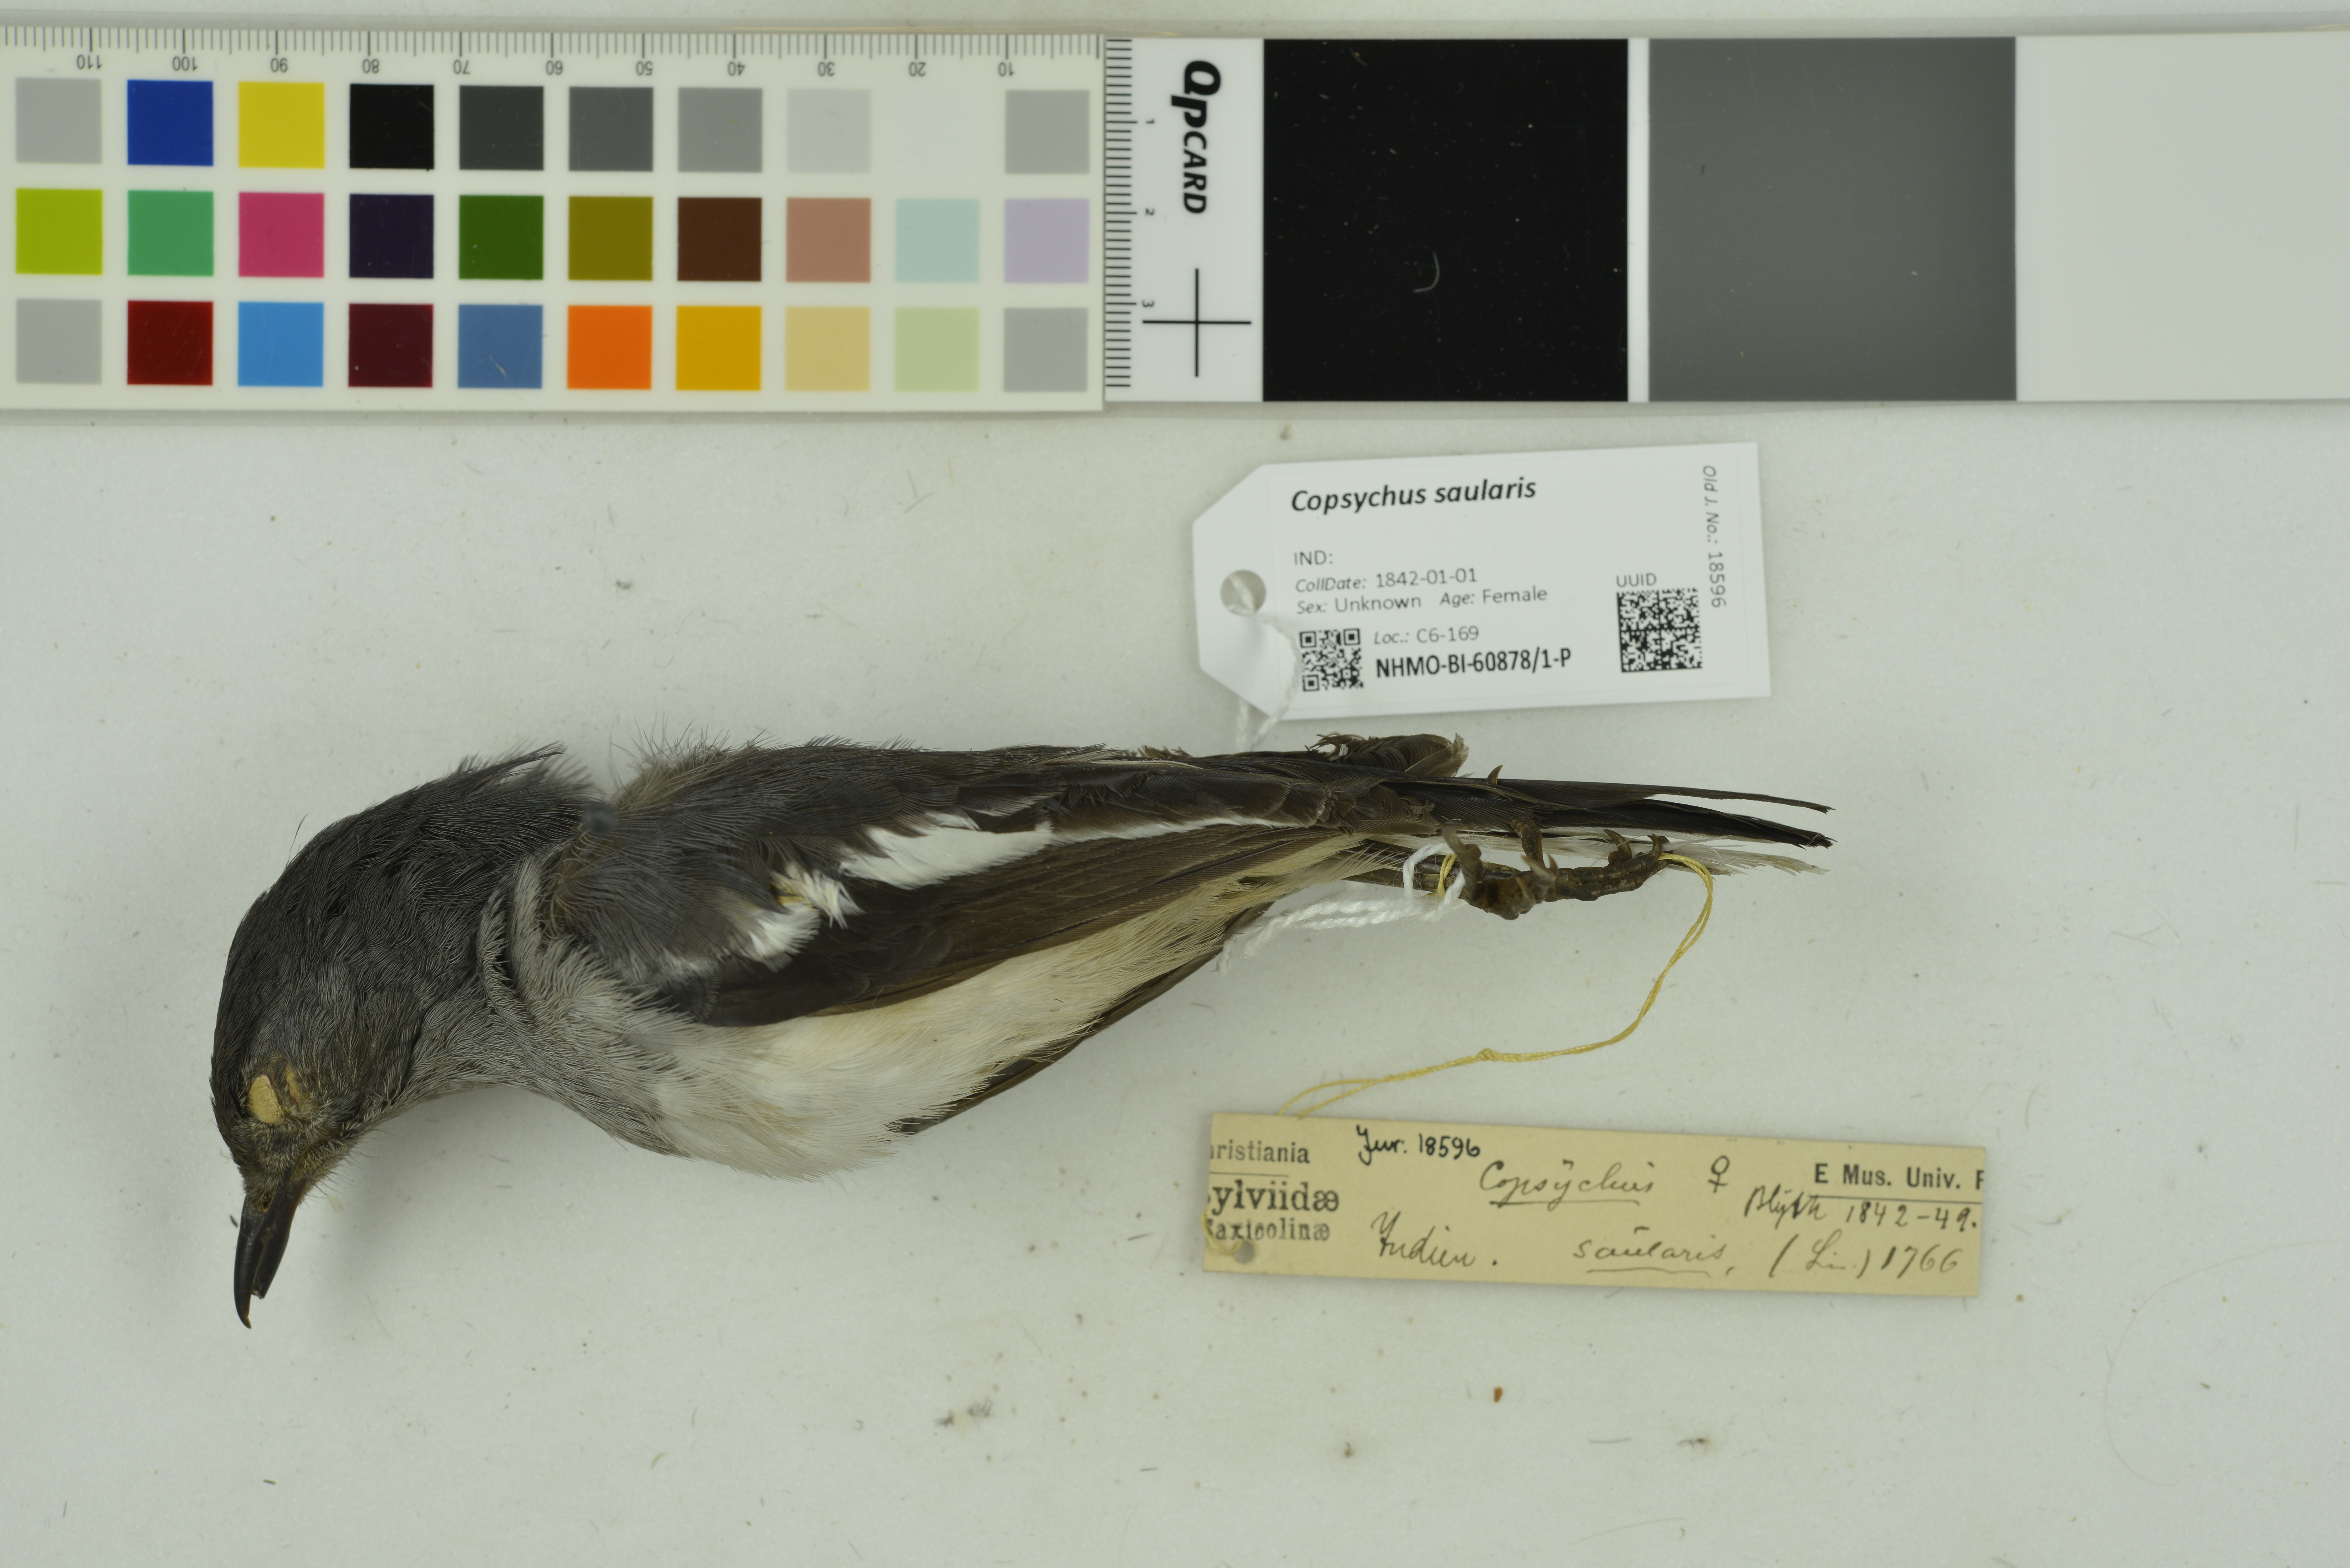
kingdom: Animalia
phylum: Chordata
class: Aves
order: Passeriformes
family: Muscicapidae
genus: Copsychus
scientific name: Copsychus saularis
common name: Oriental magpie-robin
